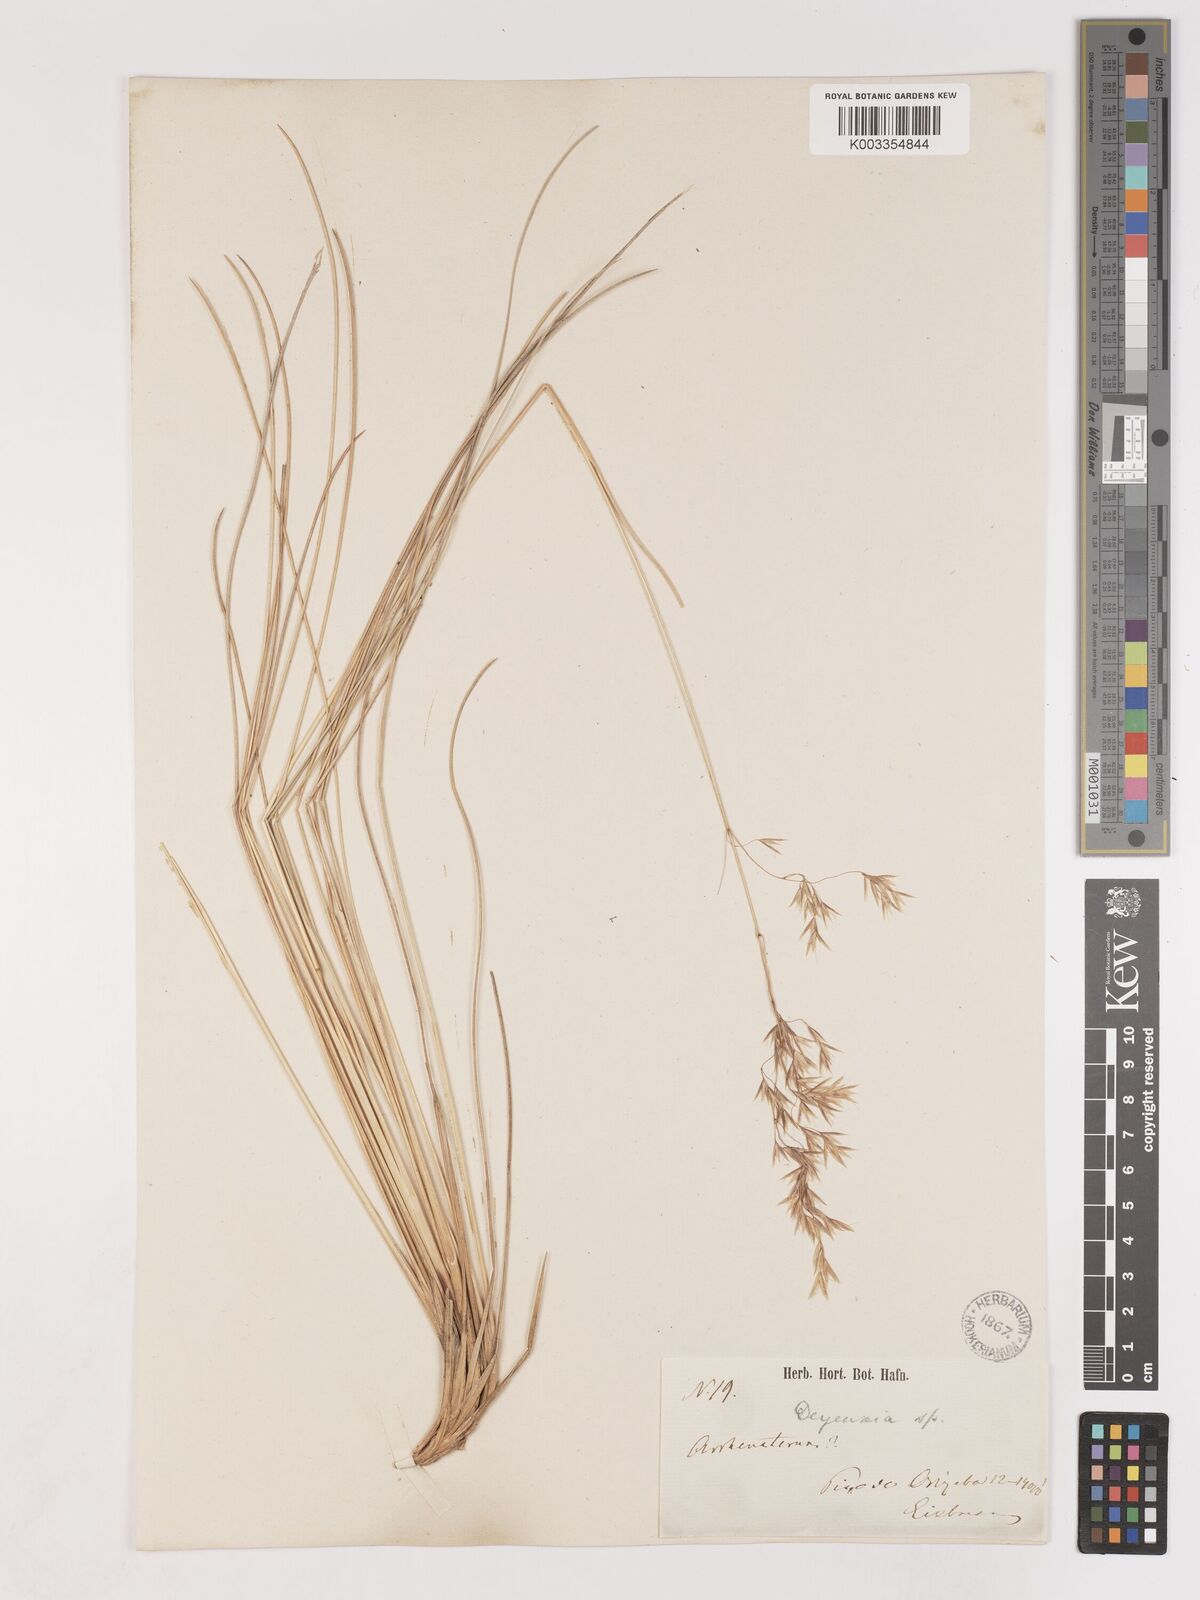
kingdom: Plantae
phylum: Tracheophyta
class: Liliopsida
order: Poales
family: Poaceae
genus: Peyritschia
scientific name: Peyritschia eriantha
